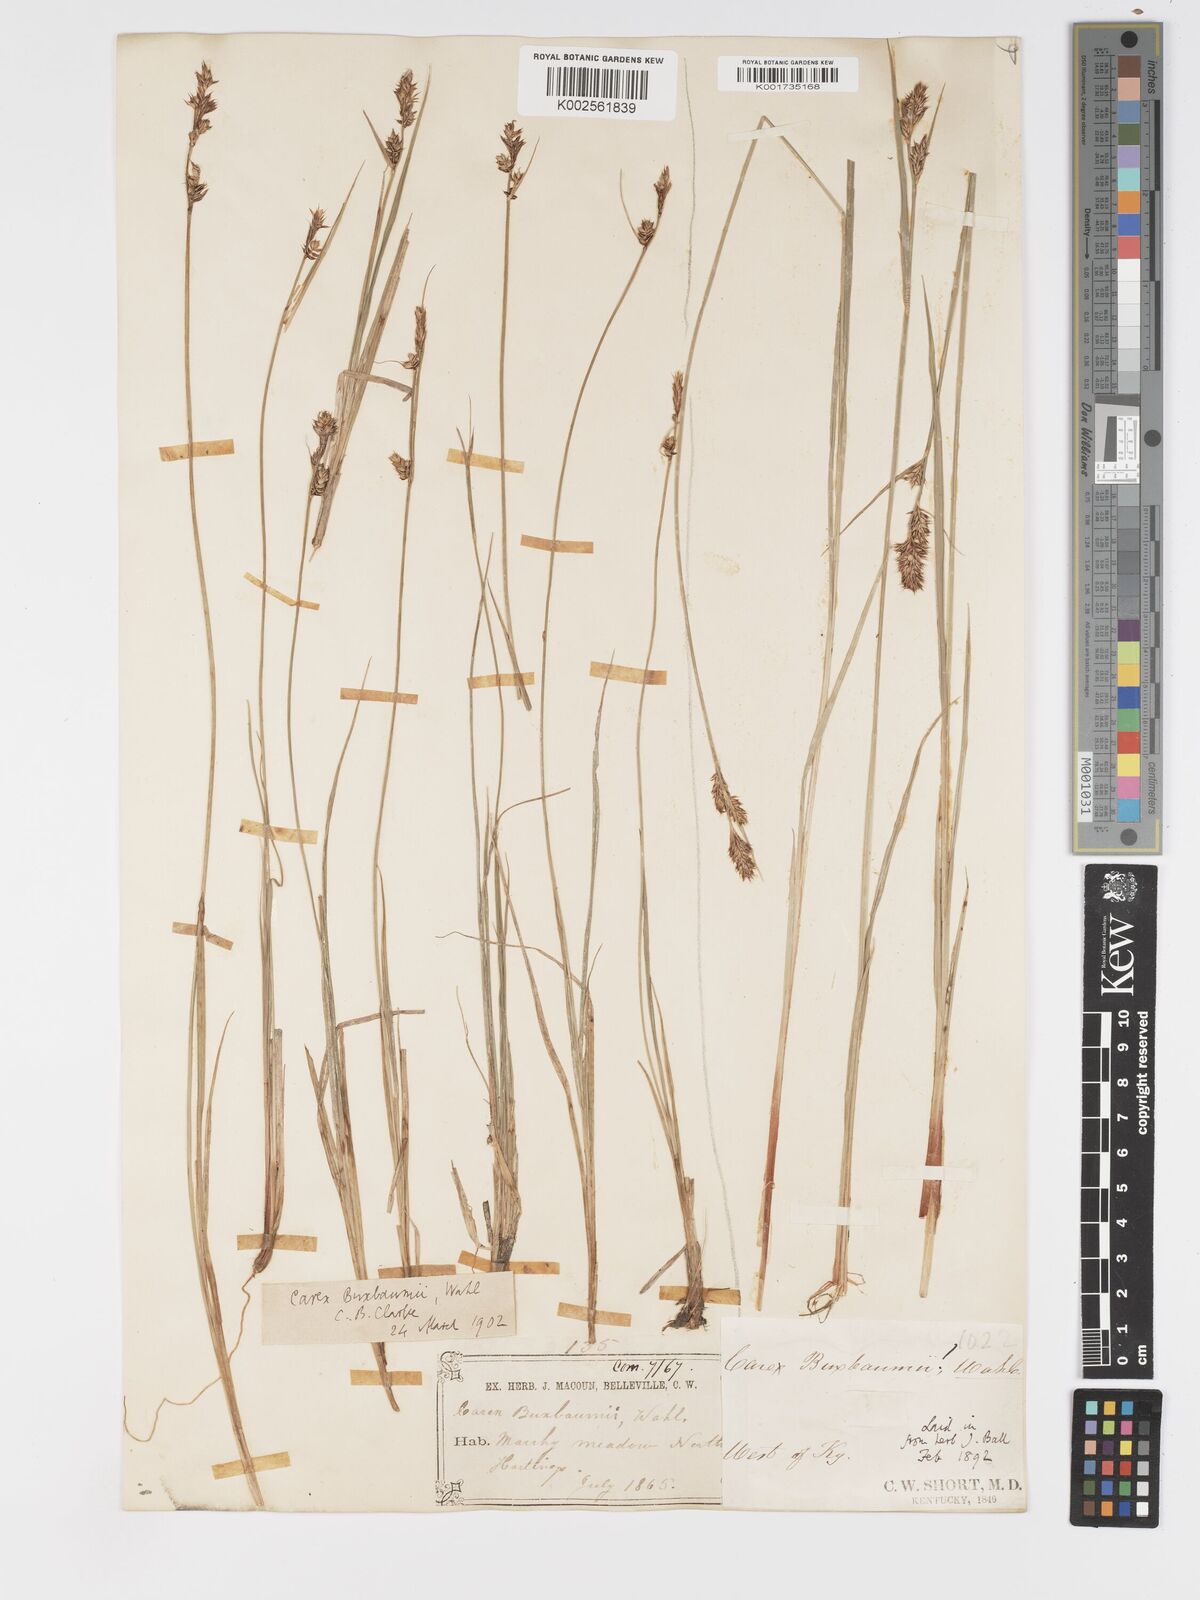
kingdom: Plantae
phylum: Tracheophyta
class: Liliopsida
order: Poales
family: Cyperaceae
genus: Carex
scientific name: Carex buxbaumii
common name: Club sedge
